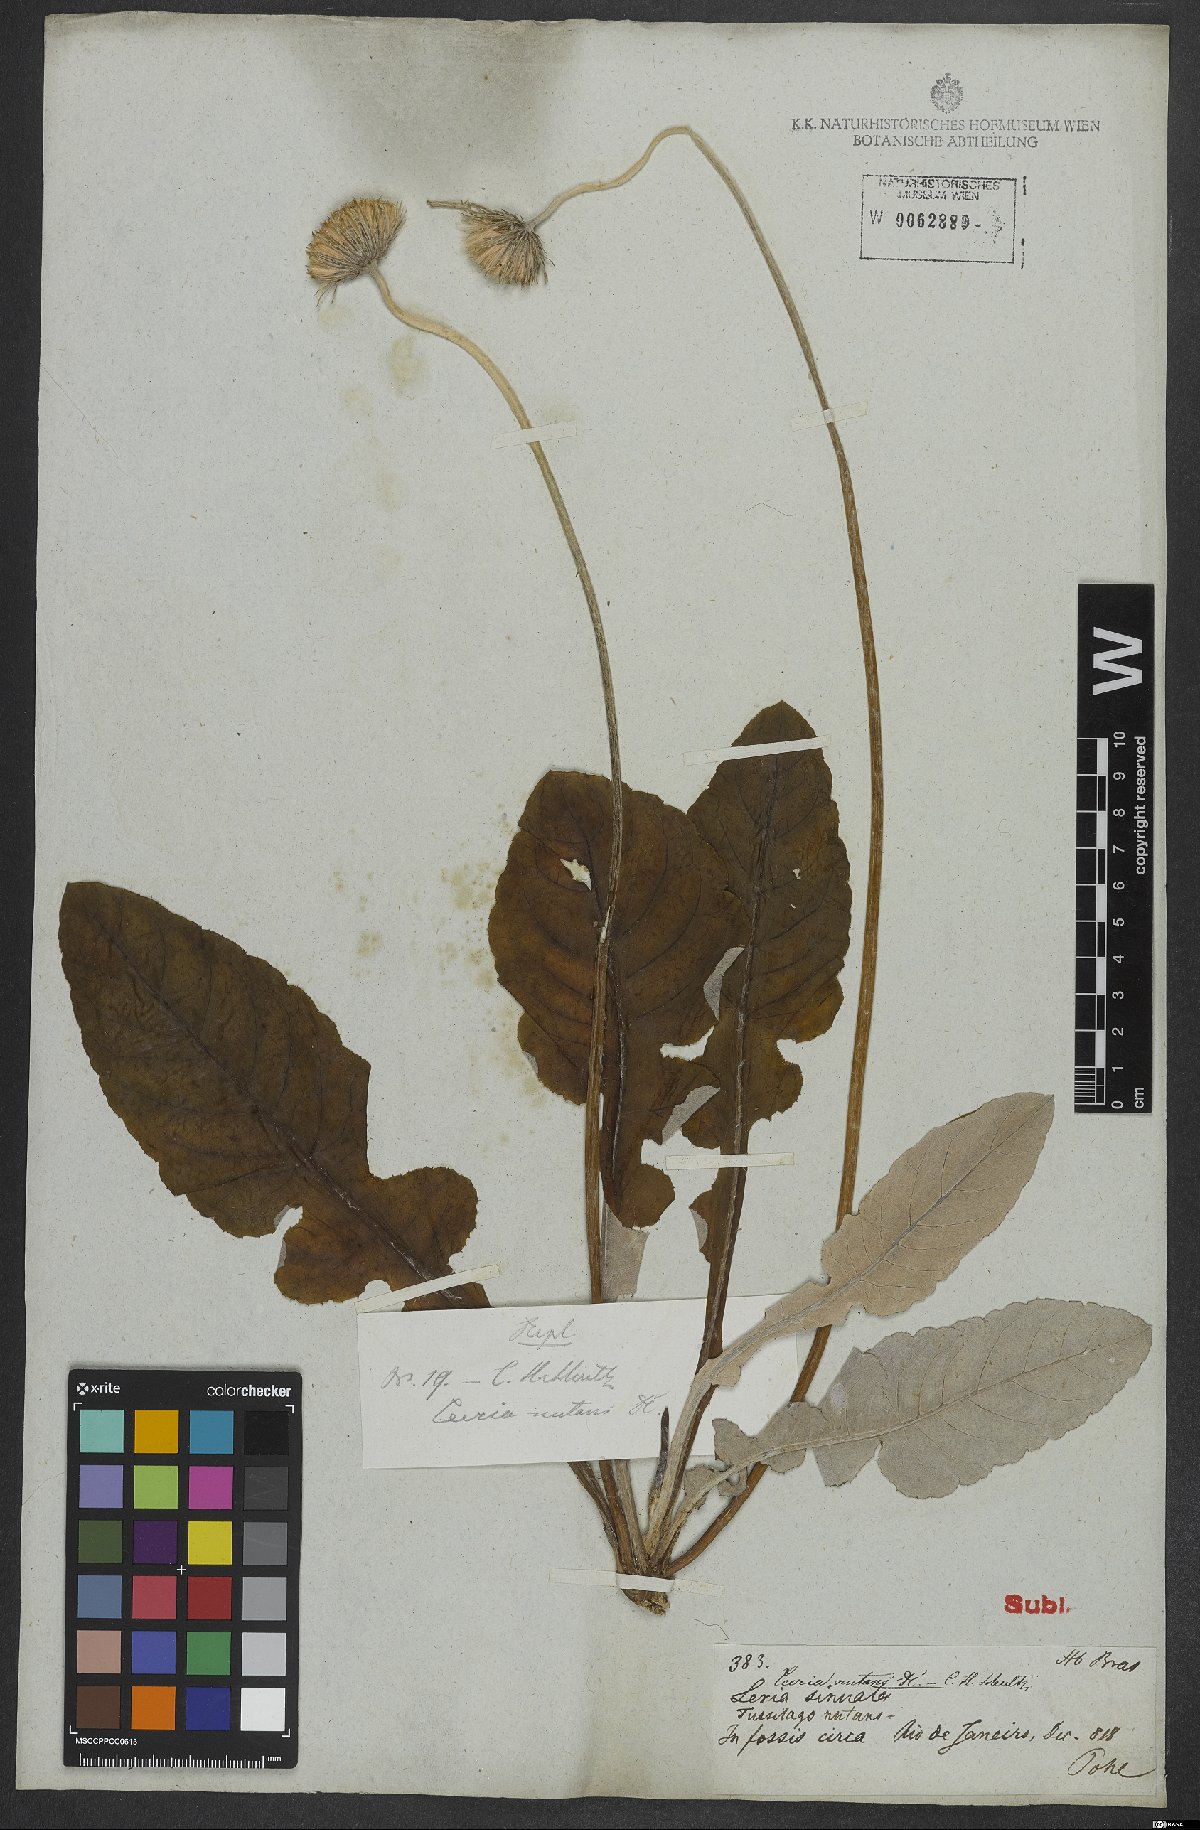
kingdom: Plantae
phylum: Tracheophyta
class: Magnoliopsida
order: Asterales
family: Asteraceae
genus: Chaptalia
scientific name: Chaptalia nutans
